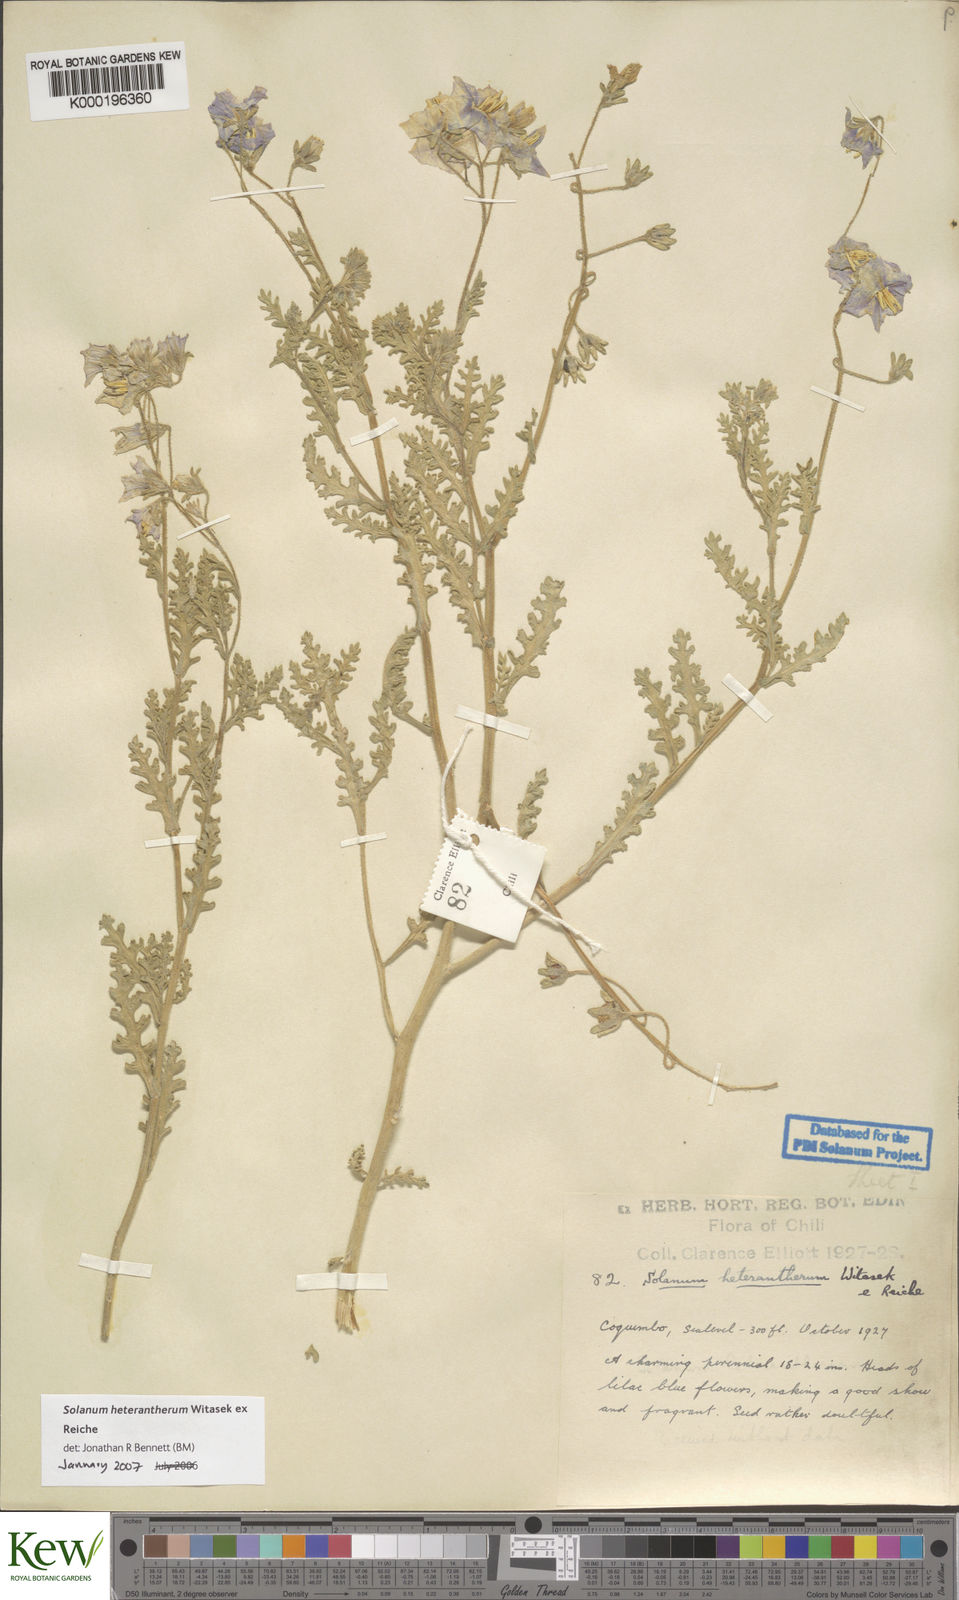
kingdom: Plantae
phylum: Tracheophyta
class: Magnoliopsida
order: Solanales
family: Solanaceae
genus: Solanum
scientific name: Solanum trinominum
